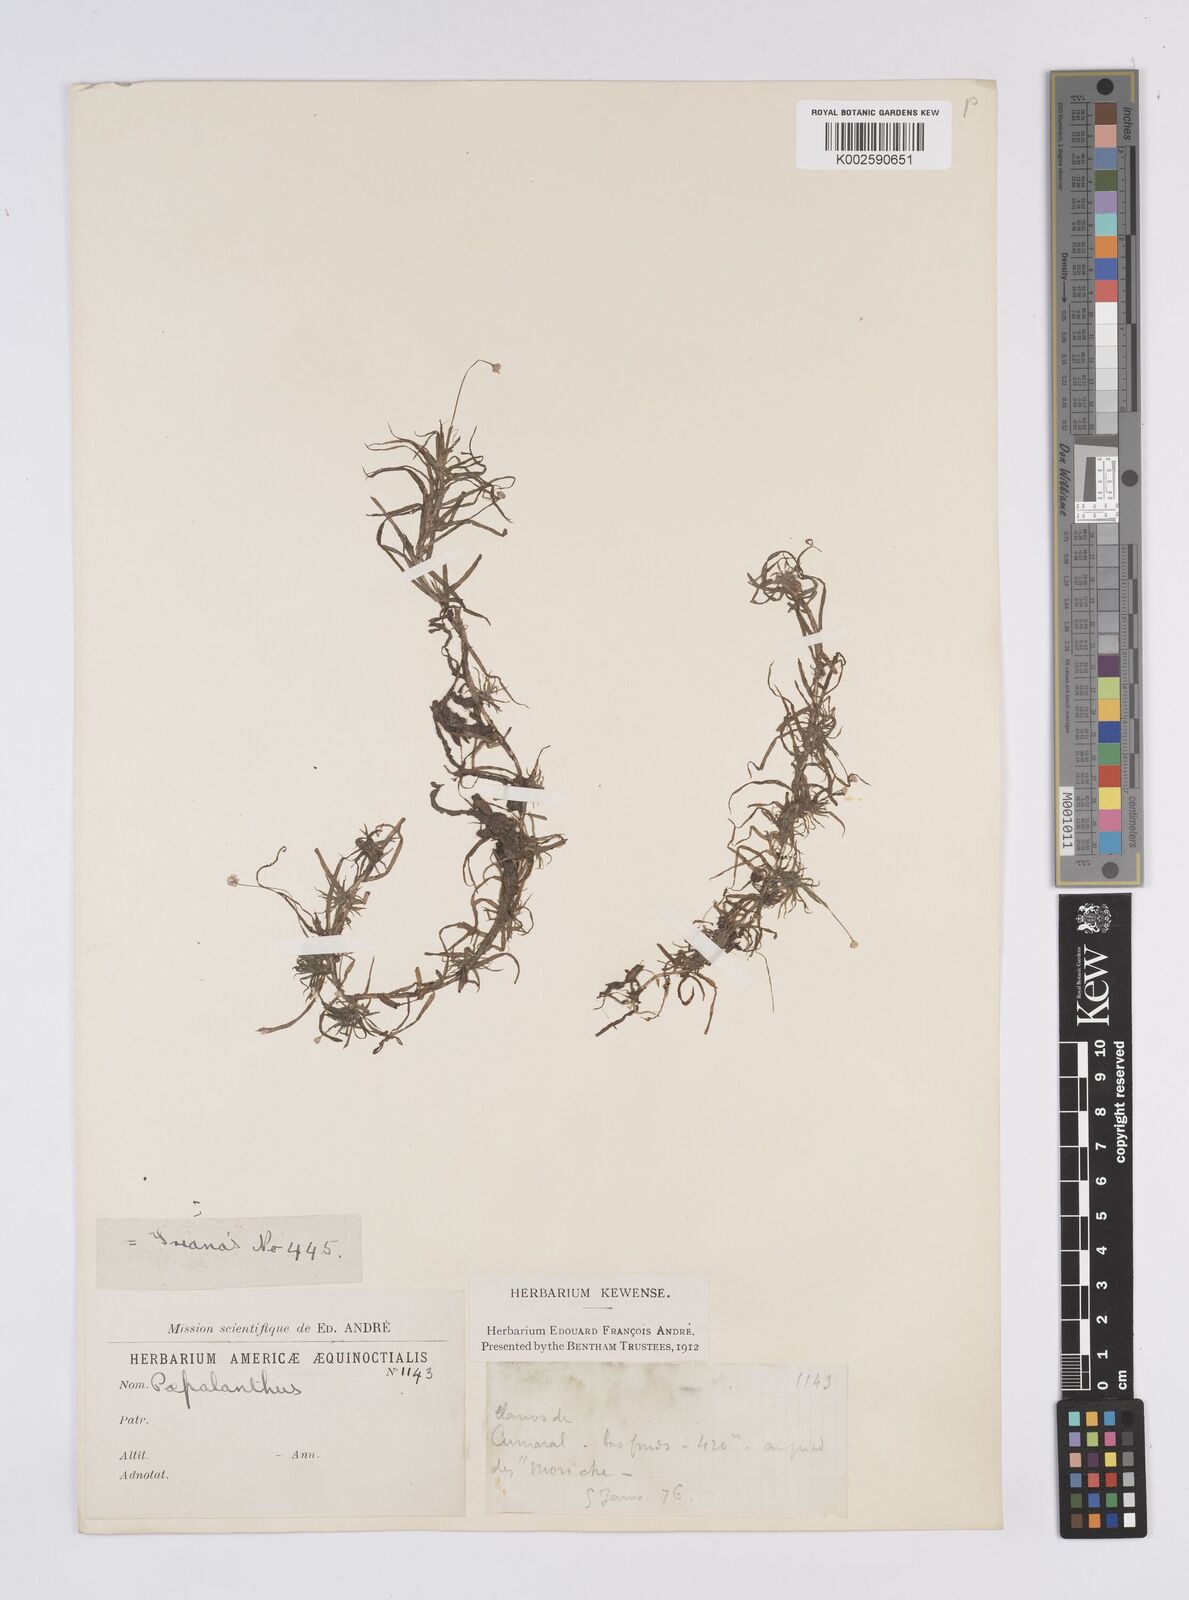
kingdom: Plantae
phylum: Tracheophyta
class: Liliopsida
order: Poales
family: Eriocaulaceae
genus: Syngonanthus
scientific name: Syngonanthus anomalus
